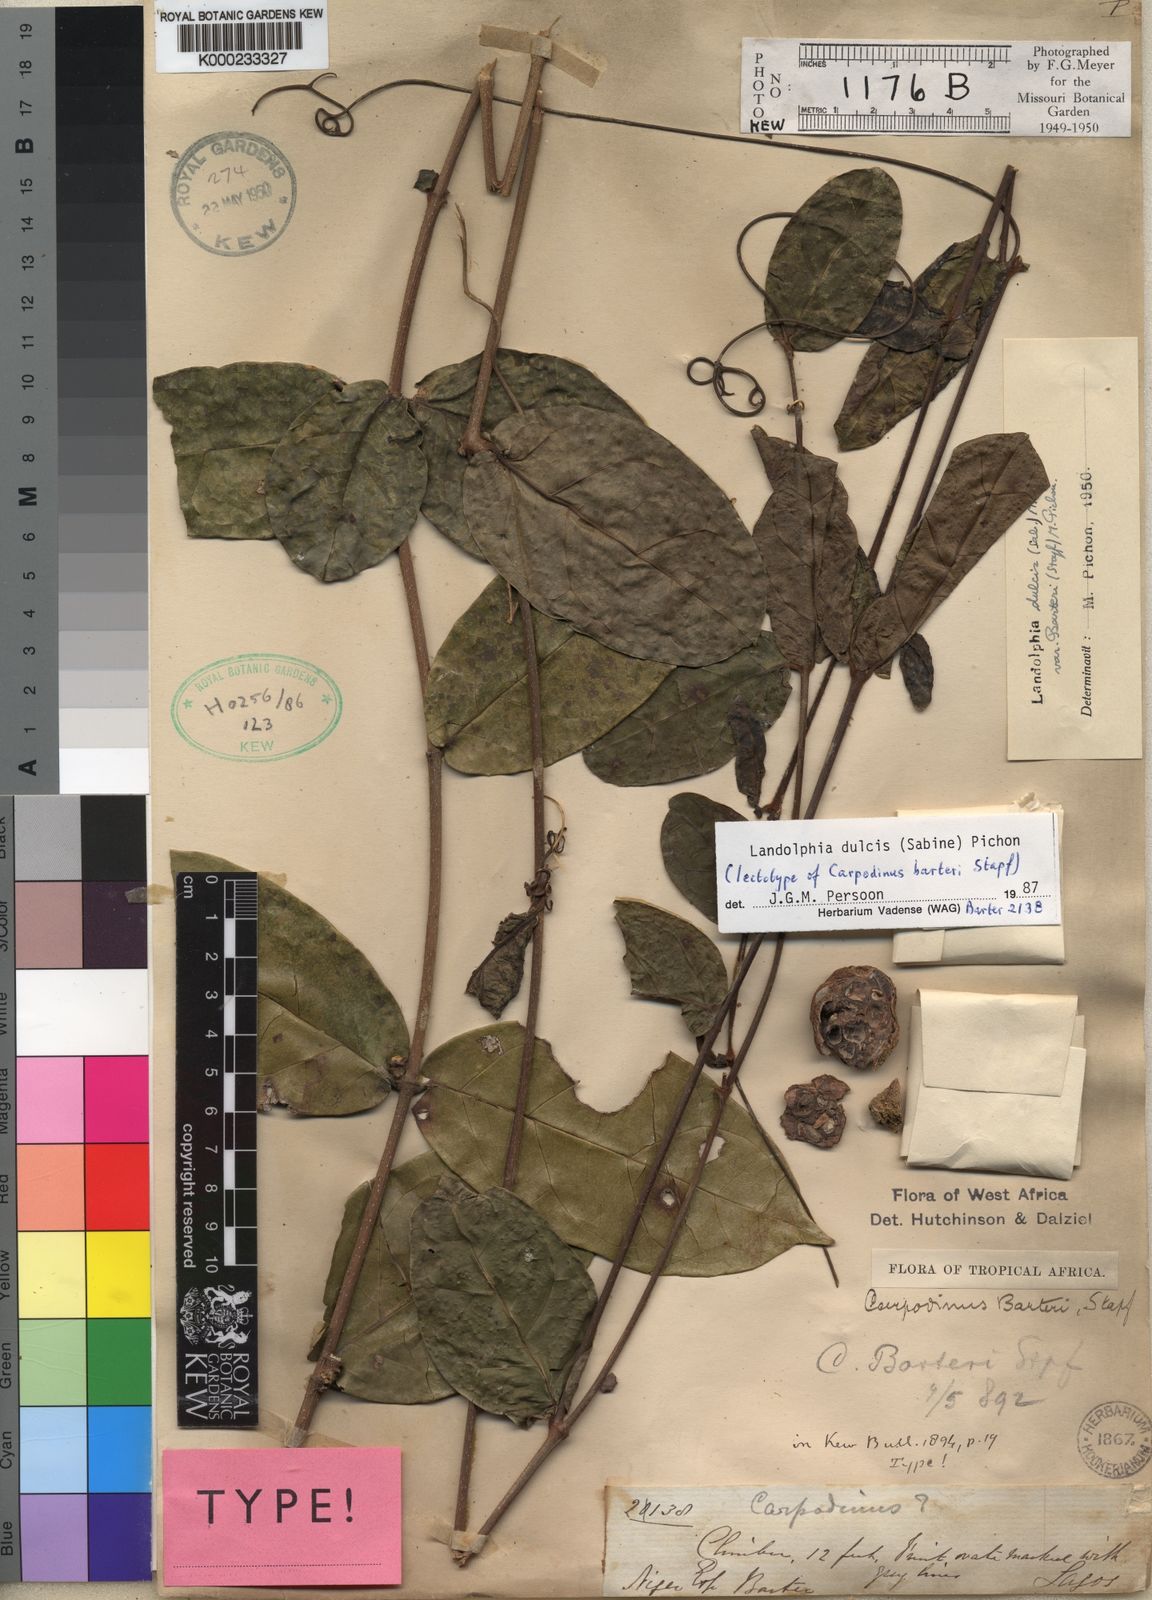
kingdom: Plantae
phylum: Tracheophyta
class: Magnoliopsida
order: Gentianales
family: Apocynaceae
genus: Landolphia
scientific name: Landolphia dulcis
